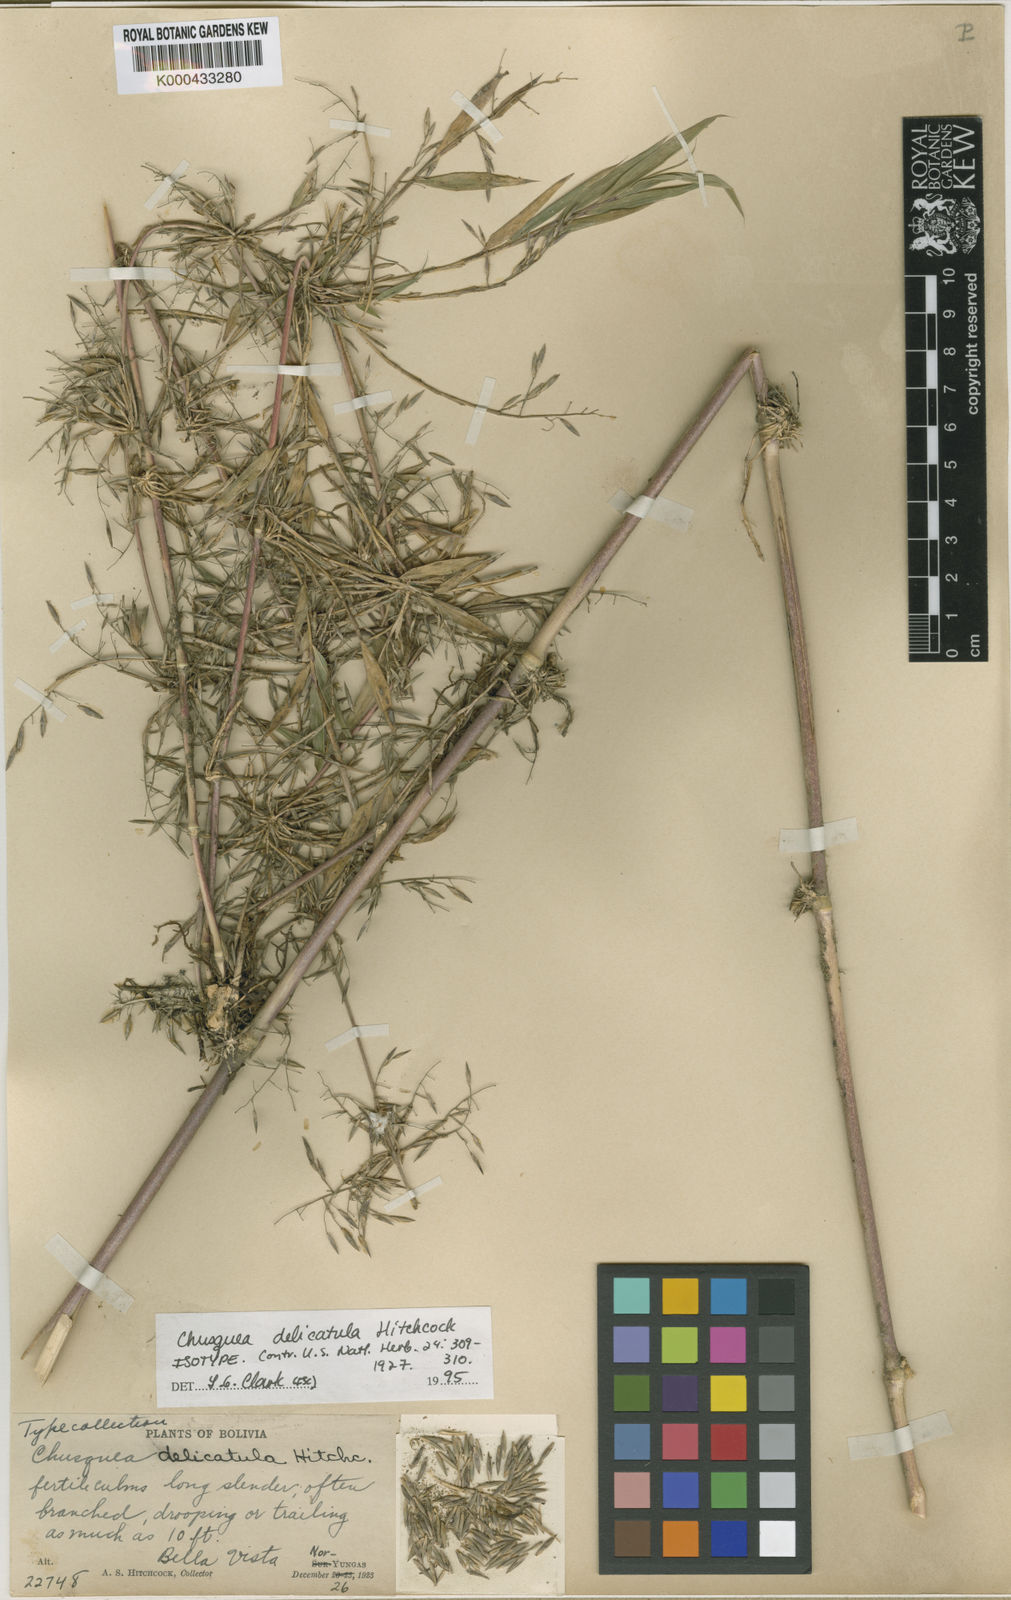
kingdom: Plantae
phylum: Tracheophyta
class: Liliopsida
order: Poales
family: Poaceae
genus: Chusquea
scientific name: Chusquea delicatula
